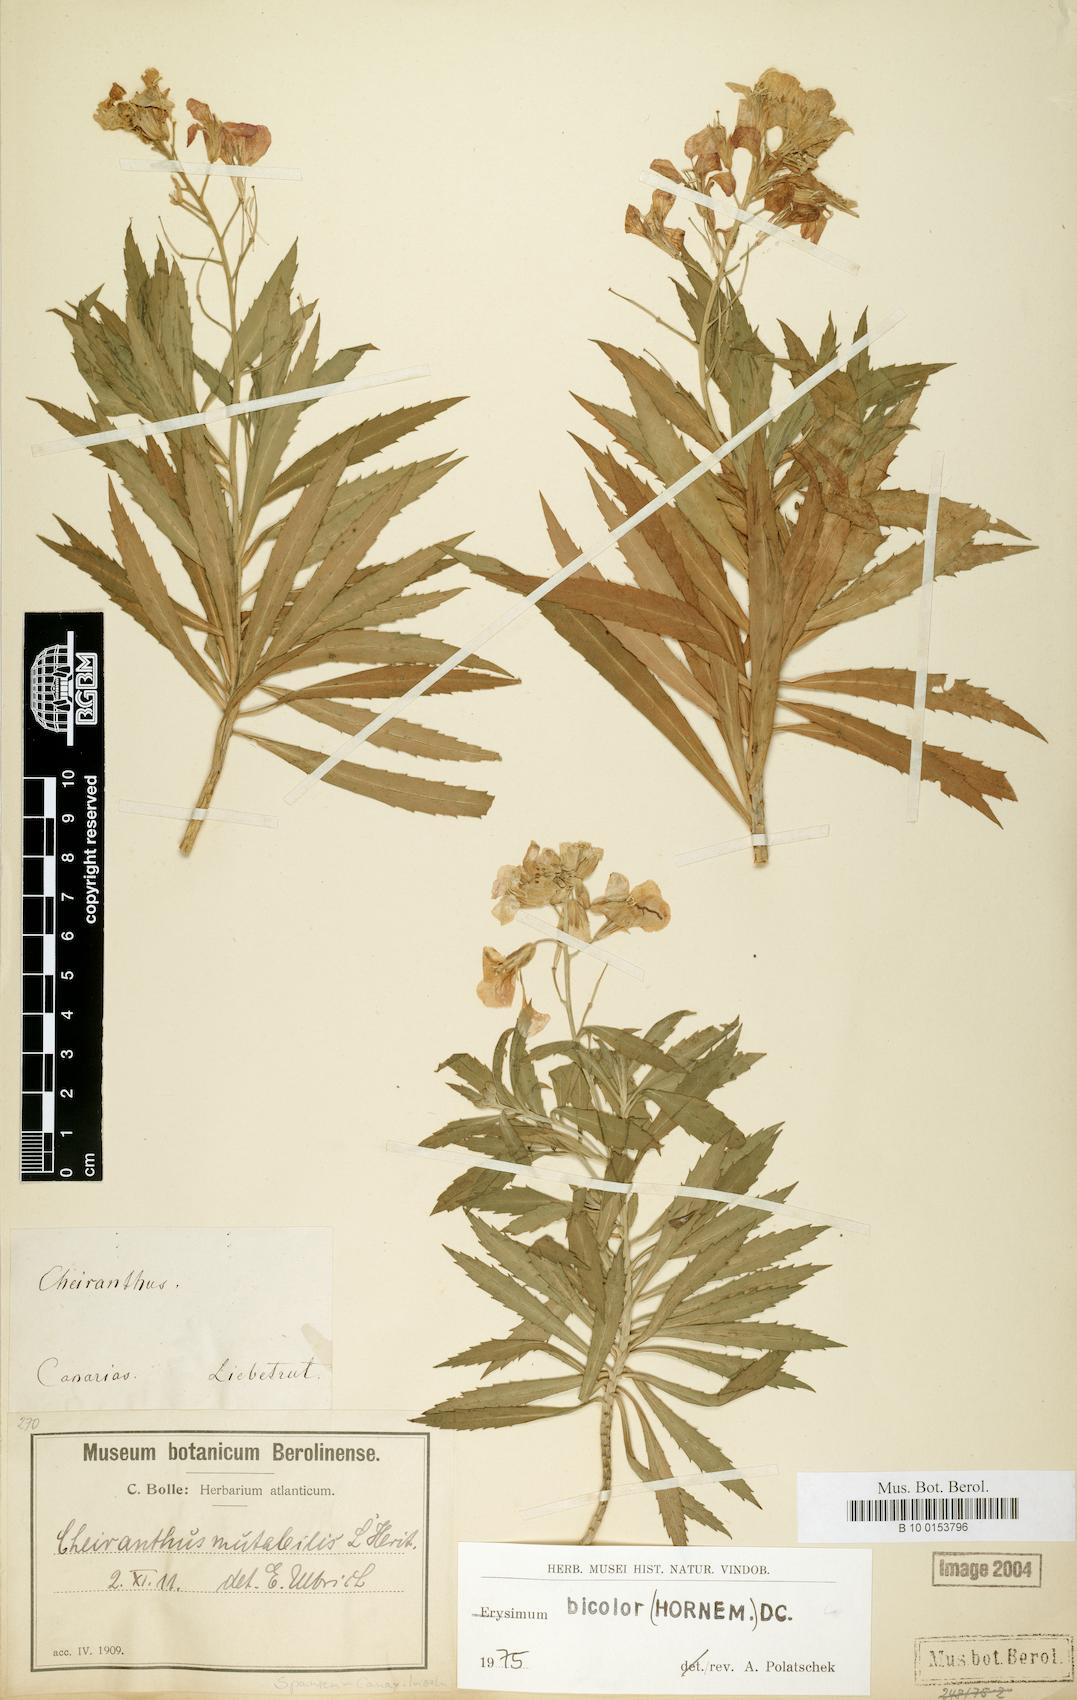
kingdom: Plantae
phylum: Tracheophyta
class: Magnoliopsida
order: Brassicales
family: Brassicaceae
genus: Erysimum
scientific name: Erysimum bicolor
